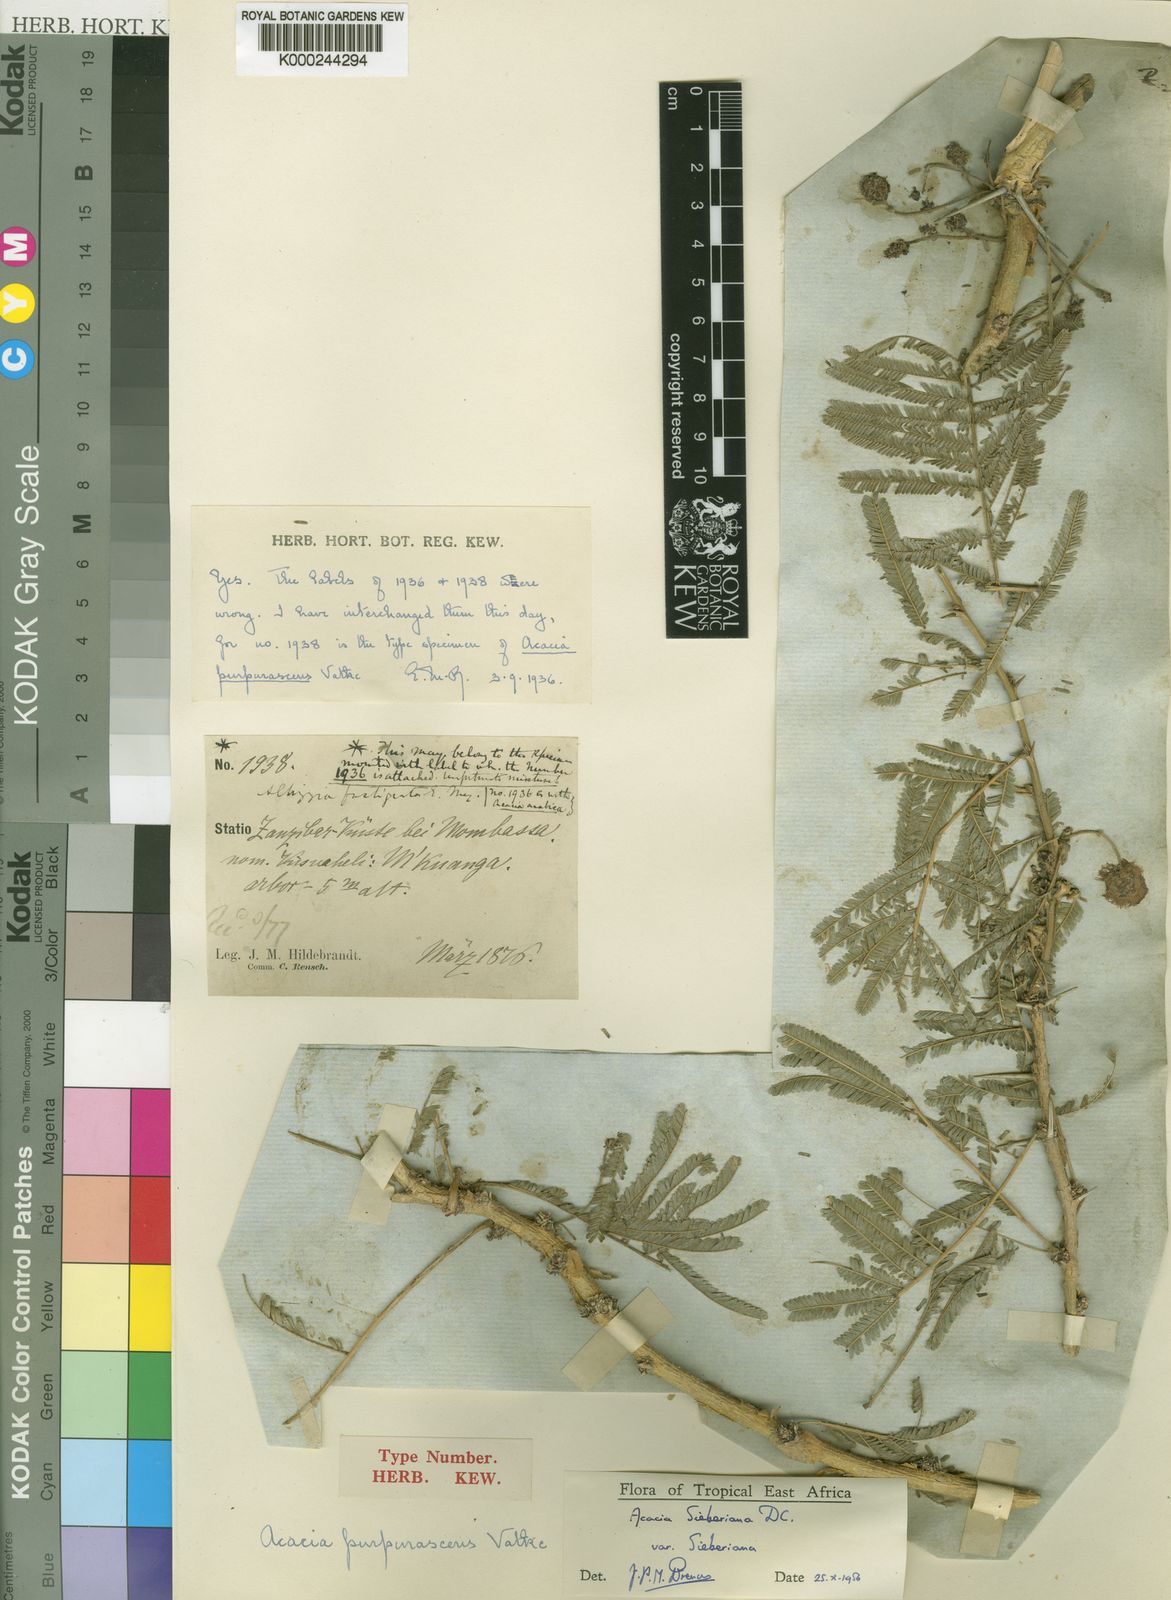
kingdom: Plantae
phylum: Tracheophyta
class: Magnoliopsida
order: Fabales
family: Fabaceae
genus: Vachellia
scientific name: Vachellia sieberiana
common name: Flat-topped thorn
